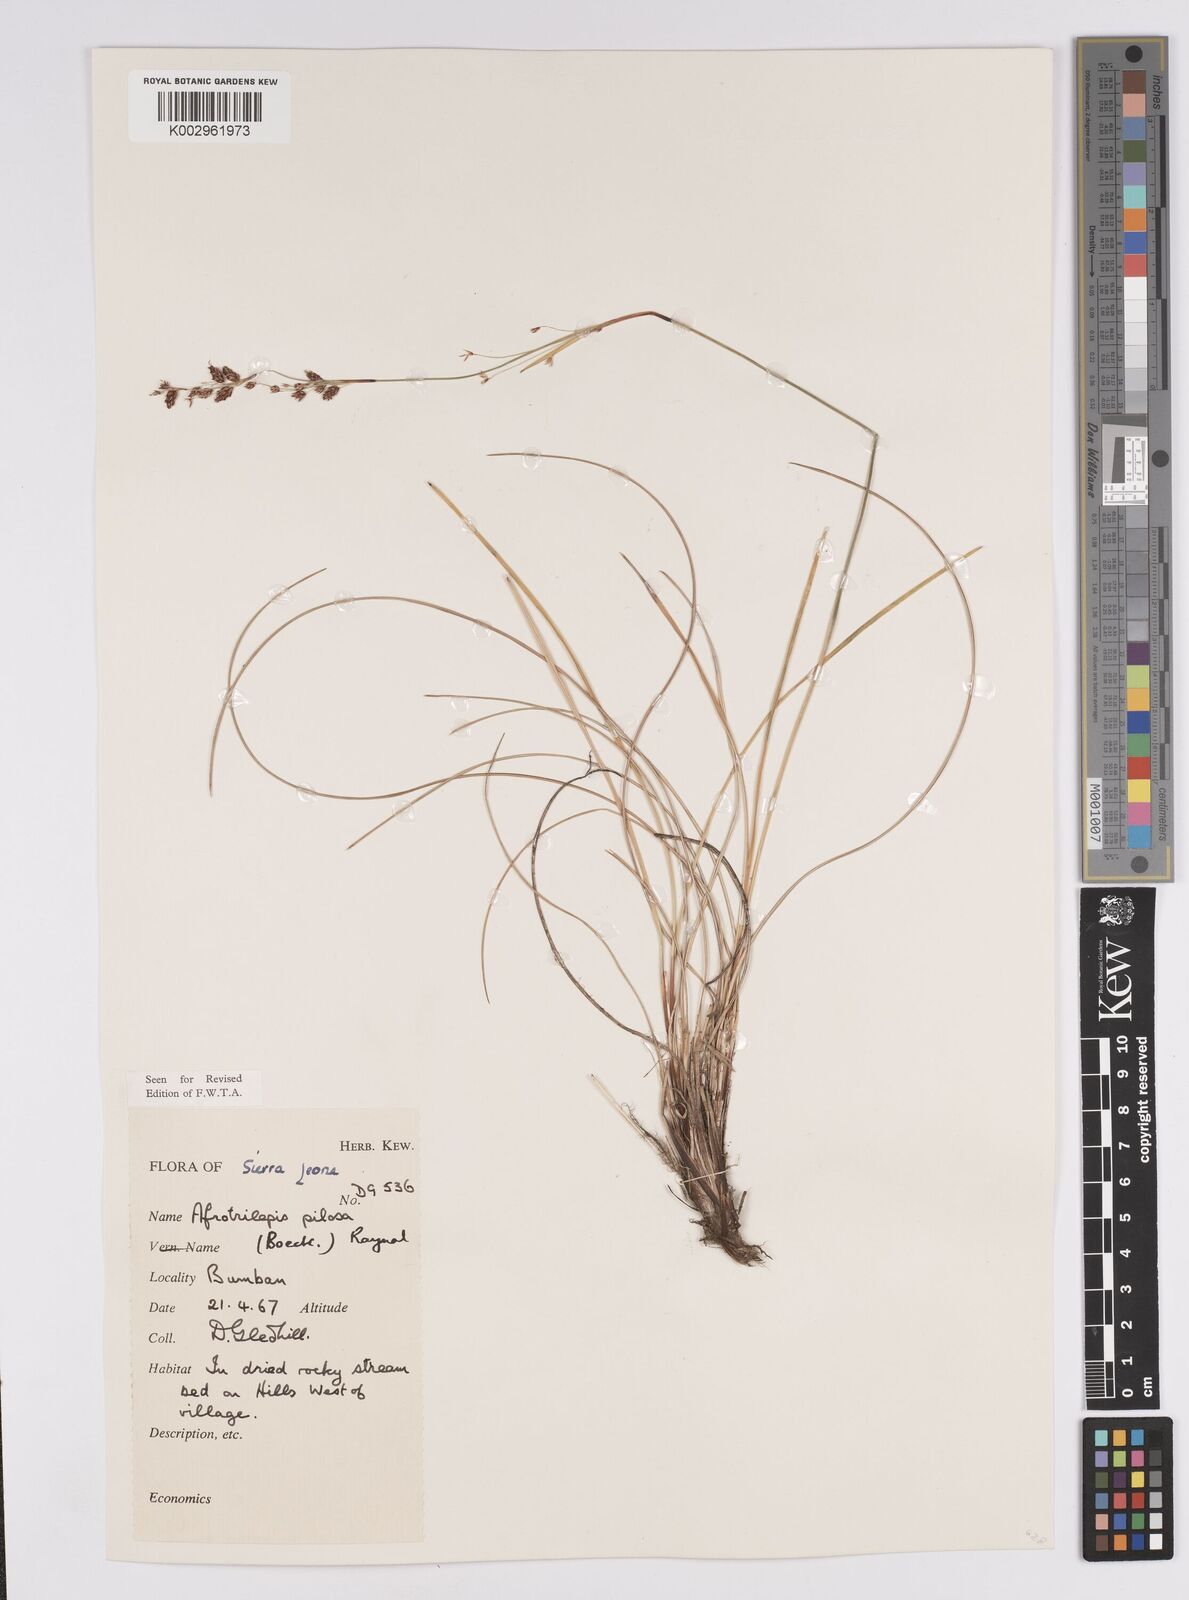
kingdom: Plantae
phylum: Tracheophyta
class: Liliopsida
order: Poales
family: Cyperaceae
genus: Afrotrilepis
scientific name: Afrotrilepis pilosa
